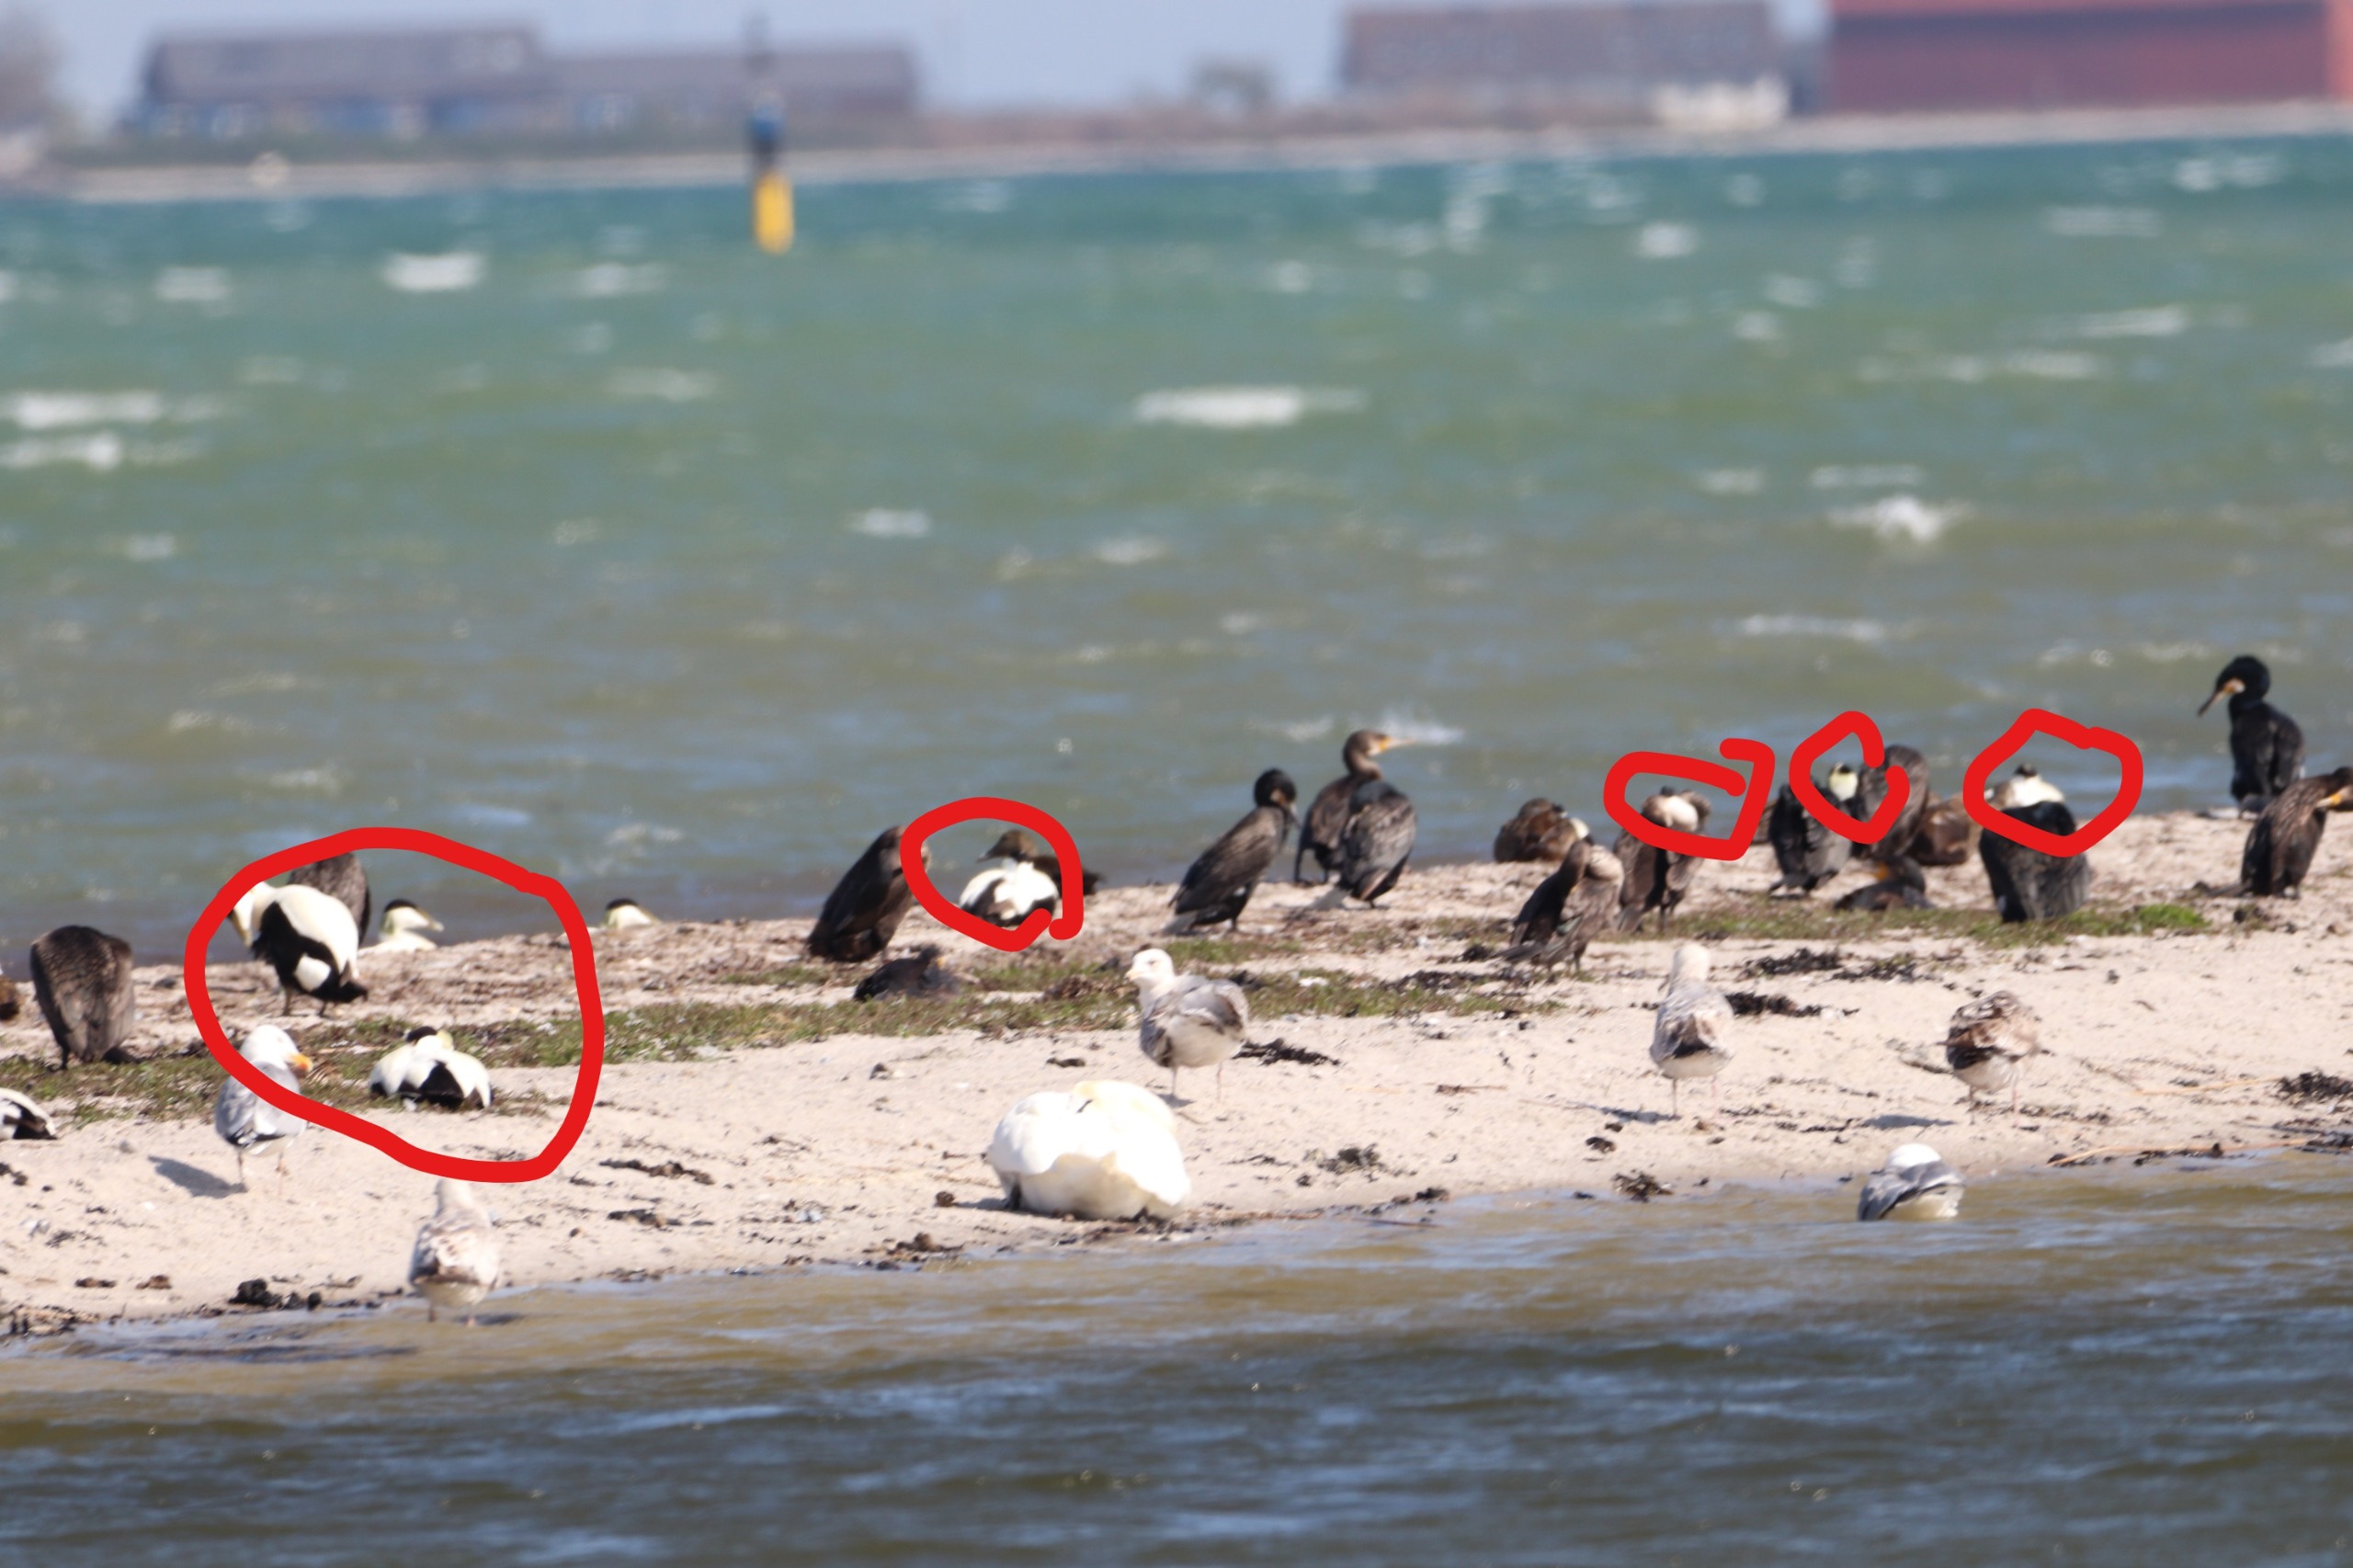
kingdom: Animalia
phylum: Chordata
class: Aves
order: Anseriformes
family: Anatidae
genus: Somateria
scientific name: Somateria mollissima
